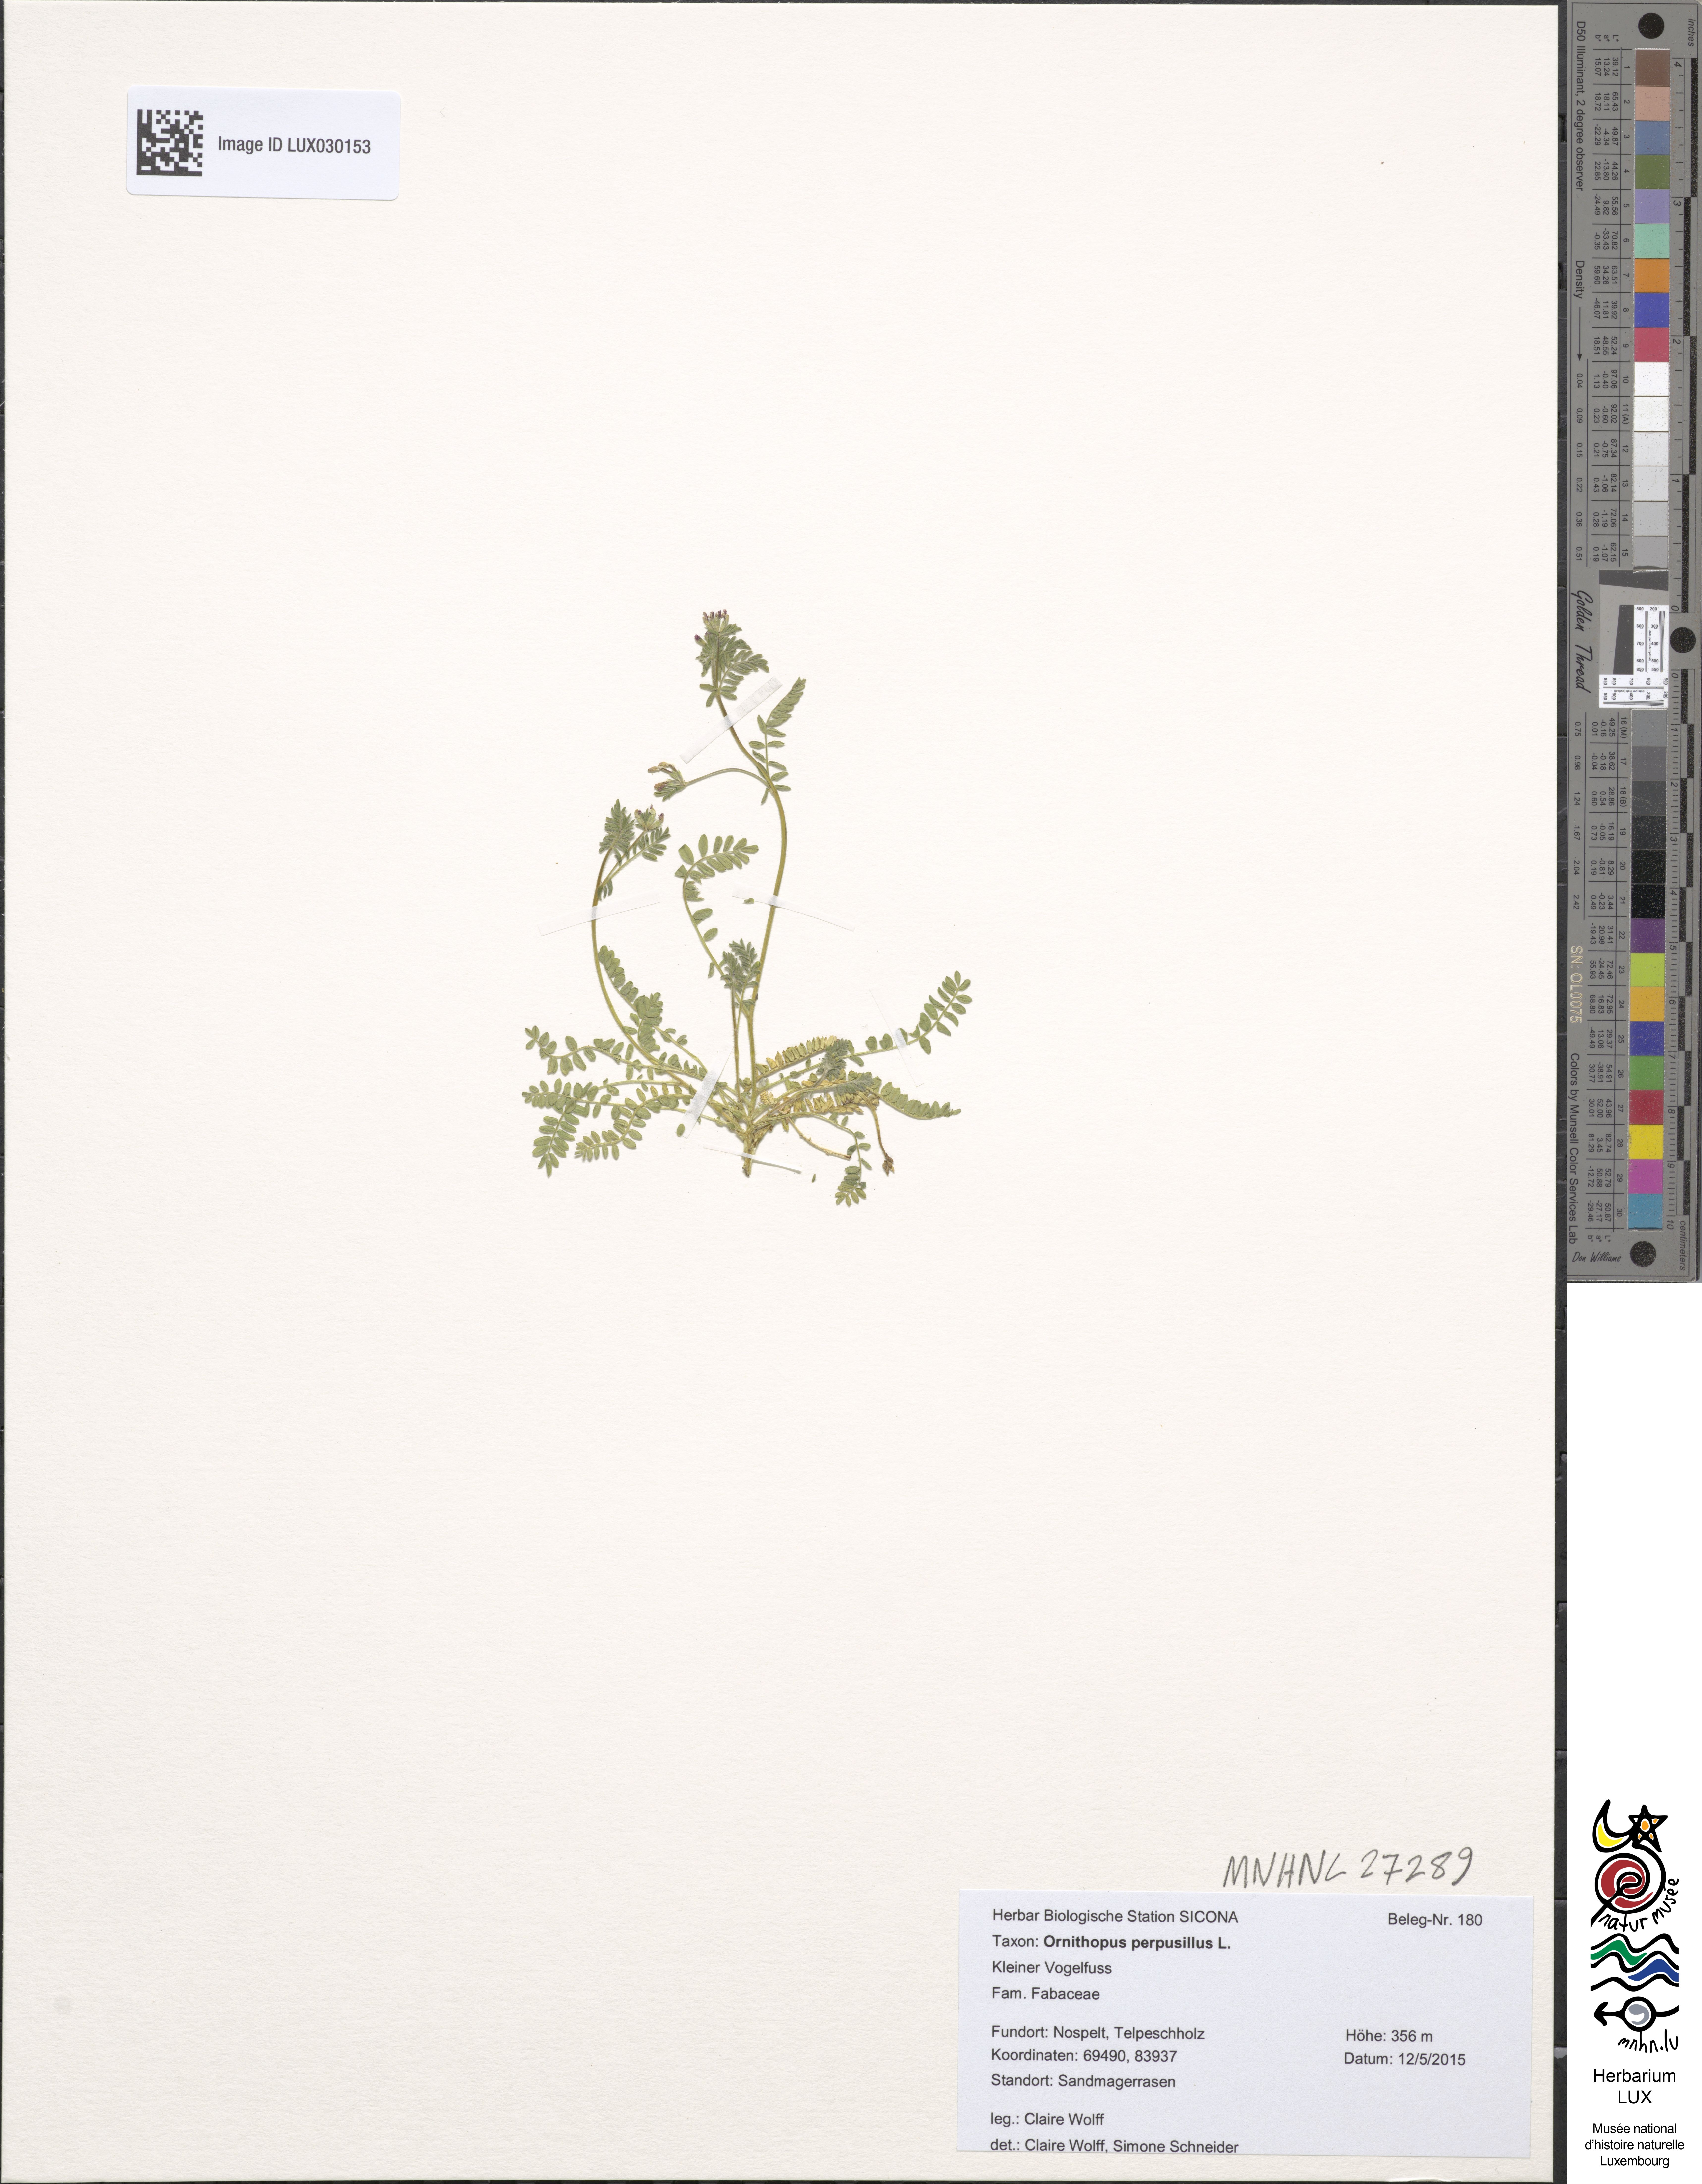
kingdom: Plantae
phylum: Tracheophyta
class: Magnoliopsida
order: Fabales
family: Fabaceae
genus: Ornithopus
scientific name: Ornithopus perpusillus
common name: Bird's-foot
